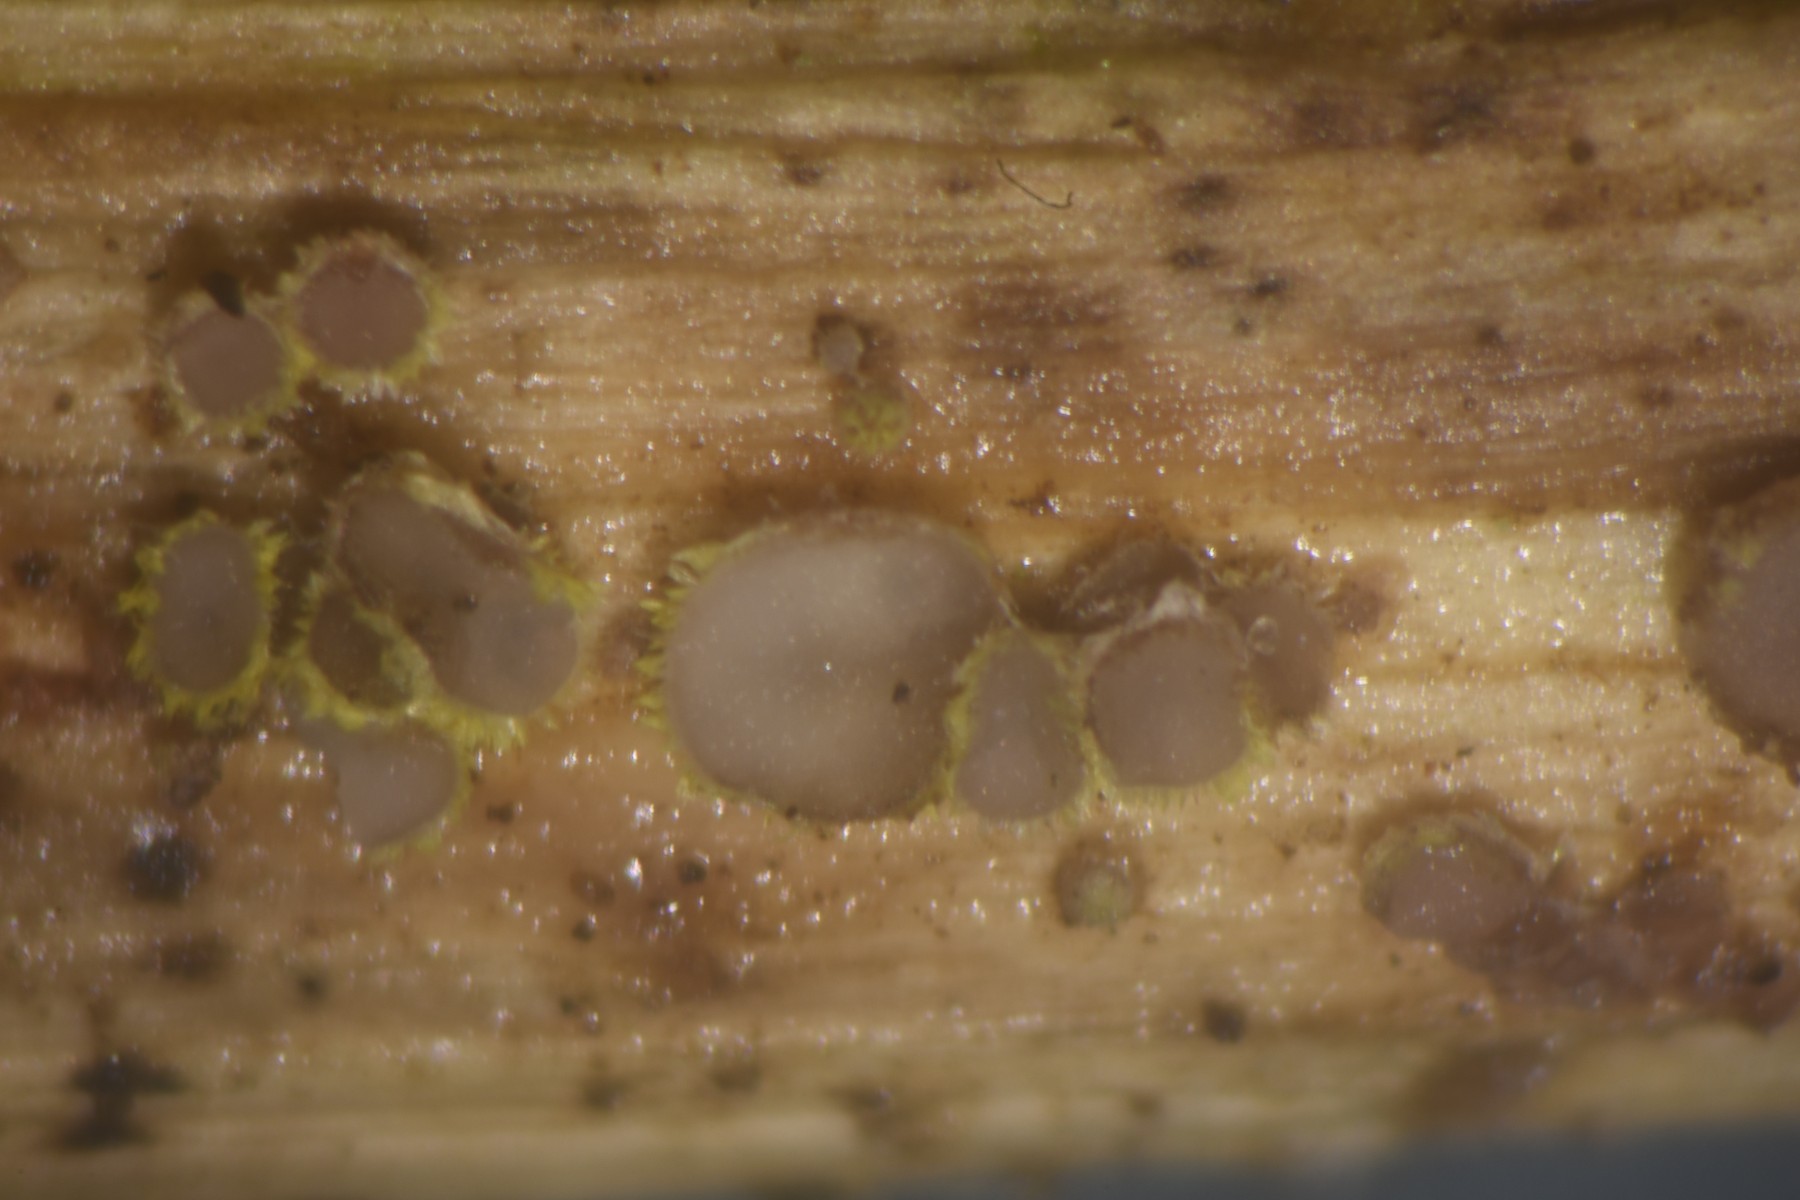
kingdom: Fungi
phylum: Ascomycota
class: Leotiomycetes
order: Helotiales
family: Lachnaceae
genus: Lachnum
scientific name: Lachnum sulphureum
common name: svovlhåret frynseskive
